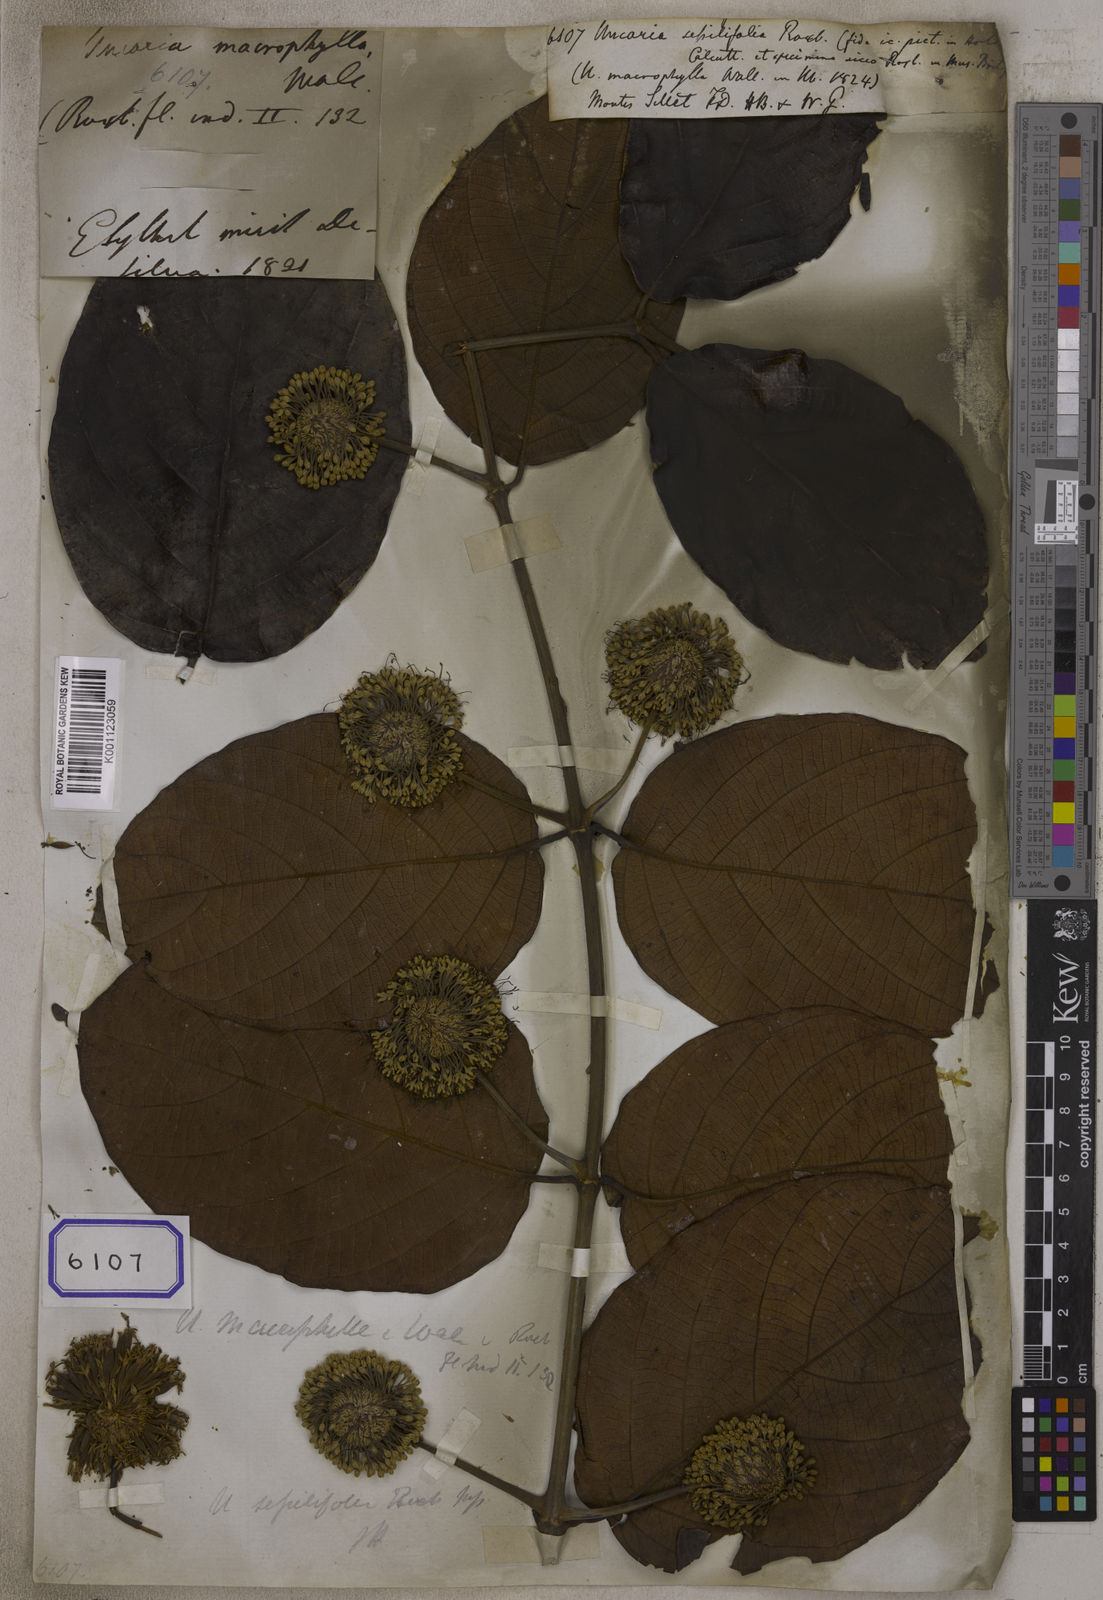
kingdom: Plantae
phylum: Tracheophyta
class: Magnoliopsida
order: Gentianales
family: Rubiaceae
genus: Uncaria
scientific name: Uncaria
